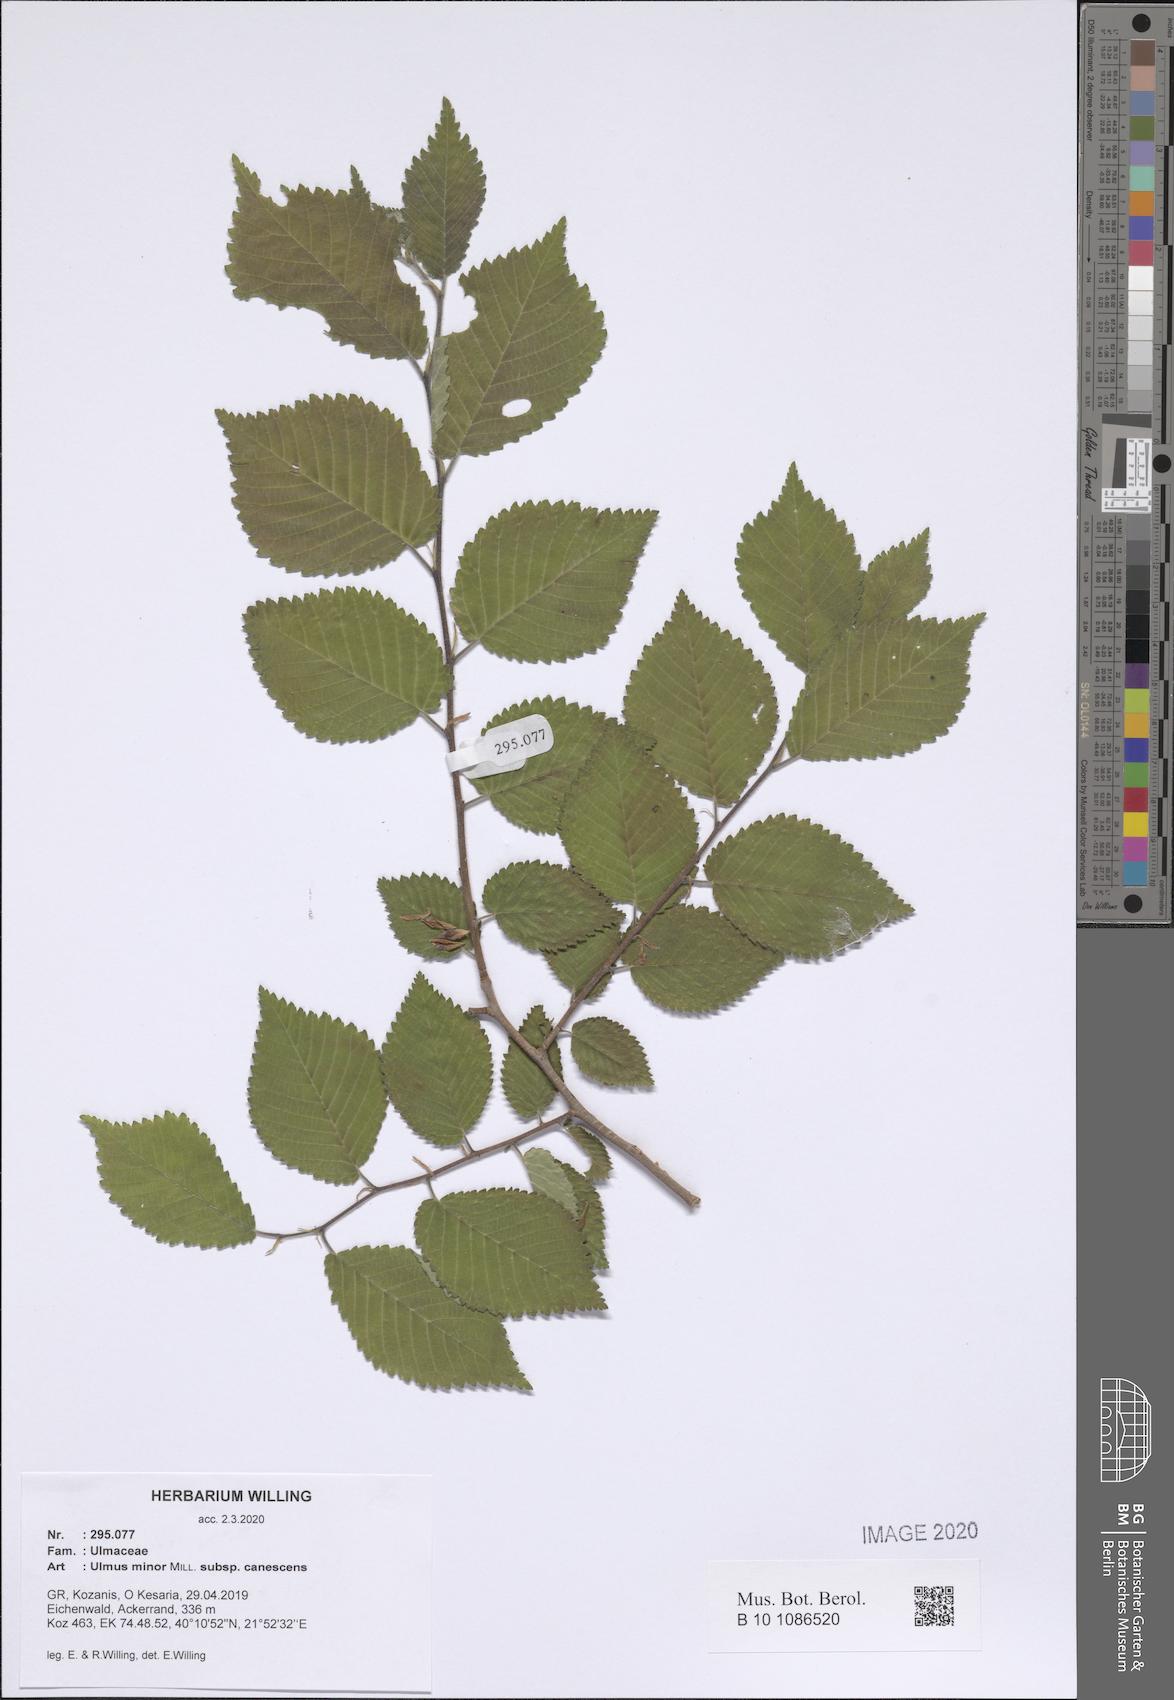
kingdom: Plantae
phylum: Tracheophyta
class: Magnoliopsida
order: Rosales
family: Ulmaceae
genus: Ulmus
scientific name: Ulmus minor
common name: Small-leaved elm
